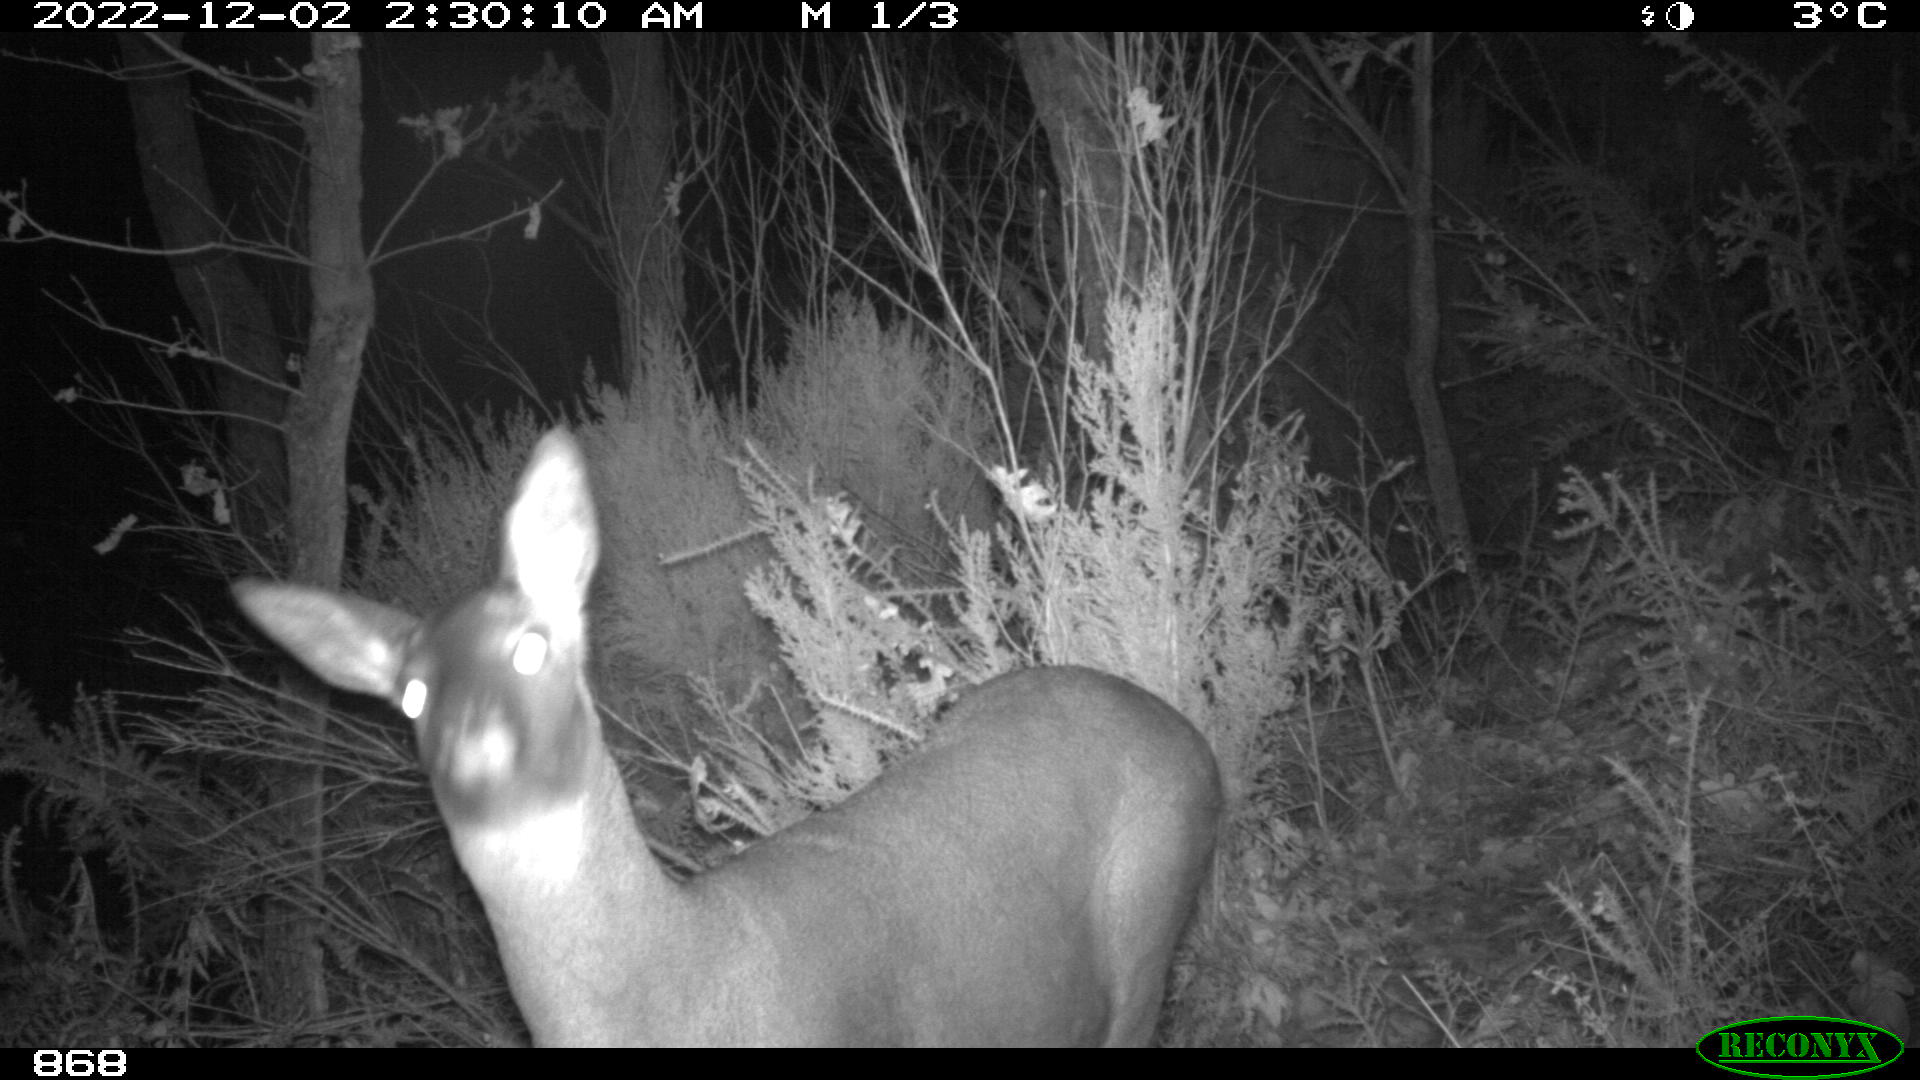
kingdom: Animalia
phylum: Chordata
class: Mammalia
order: Artiodactyla
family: Cervidae
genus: Capreolus
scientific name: Capreolus capreolus
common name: Western roe deer
